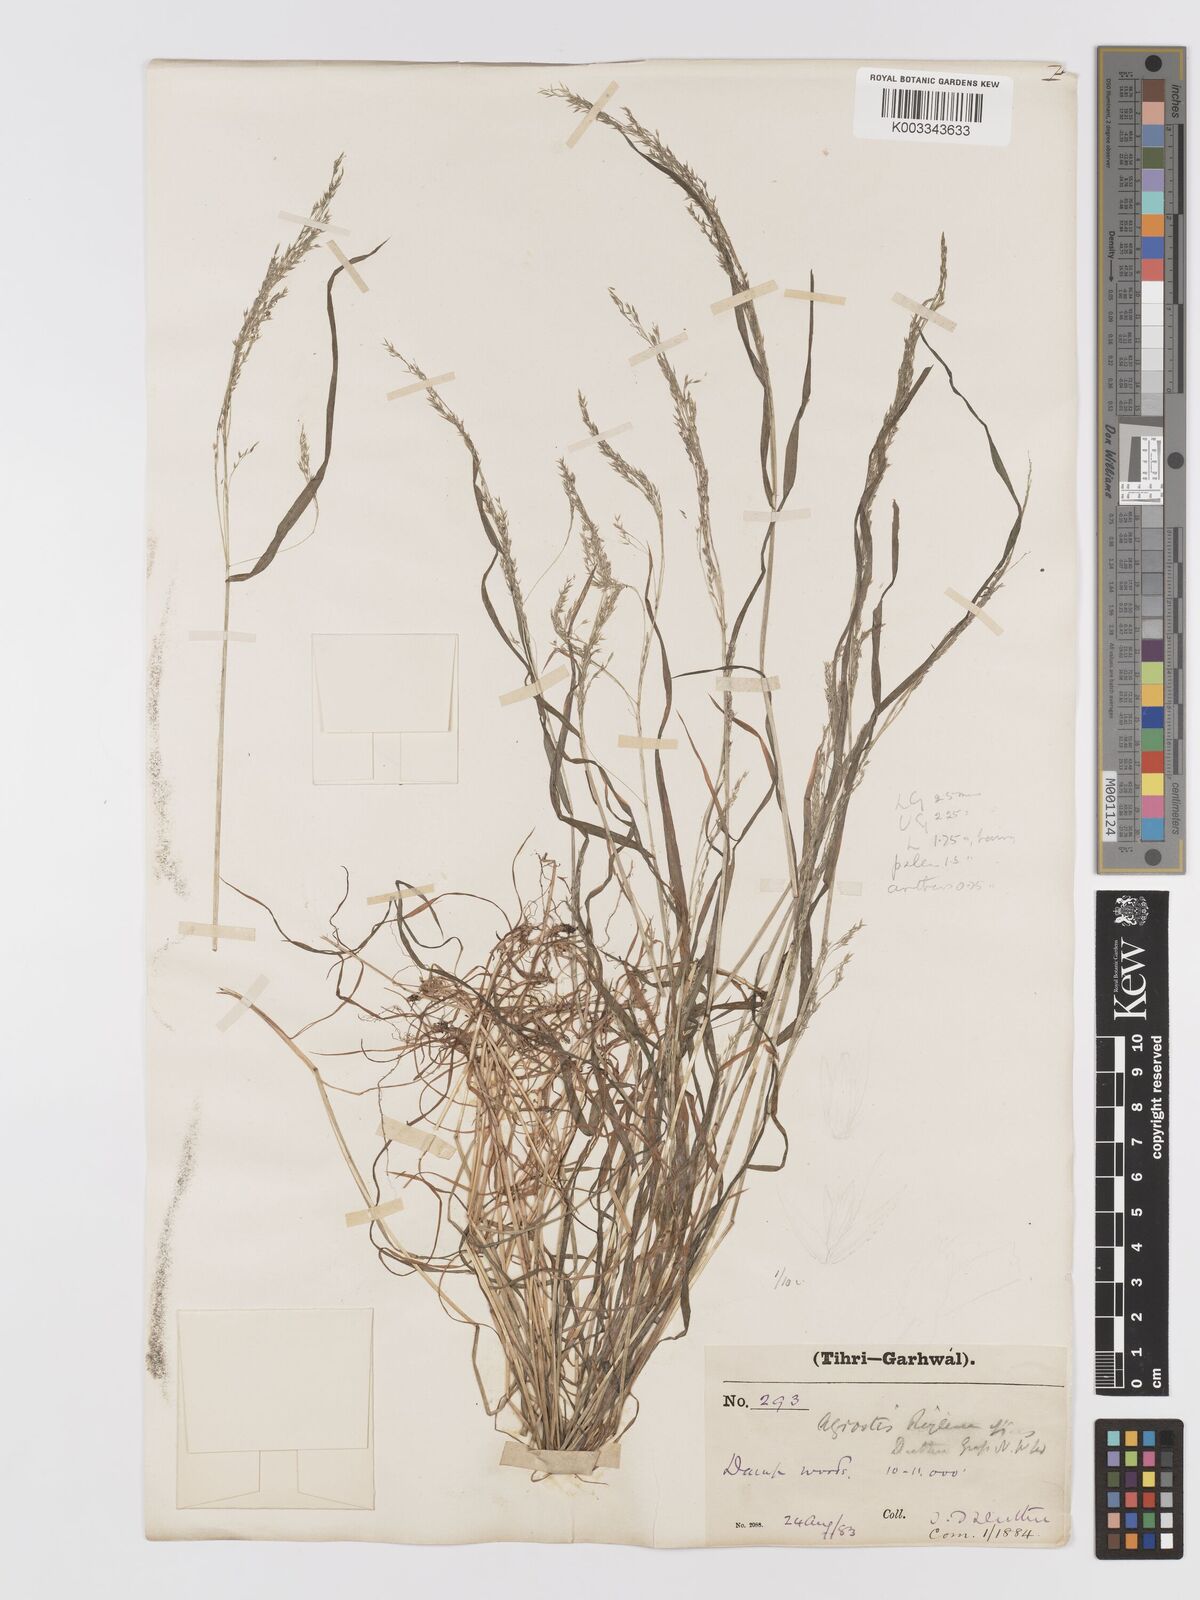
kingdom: Plantae
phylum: Tracheophyta
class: Liliopsida
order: Poales
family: Poaceae
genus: Agrostis
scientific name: Agrostis munroana
